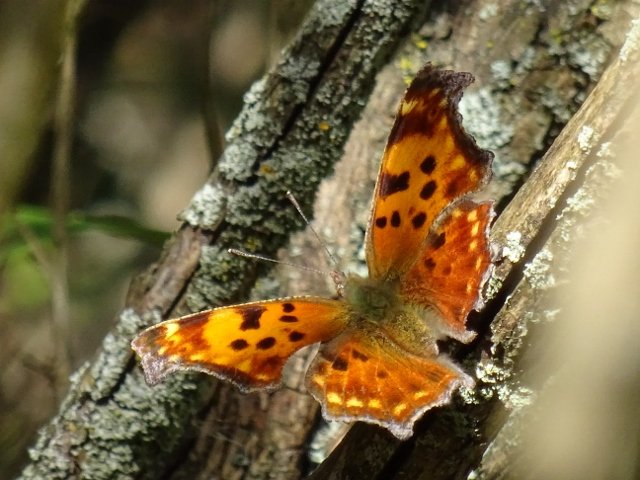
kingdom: Animalia
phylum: Arthropoda
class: Insecta
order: Lepidoptera
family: Nymphalidae
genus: Polygonia
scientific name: Polygonia comma
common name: Eastern Comma
